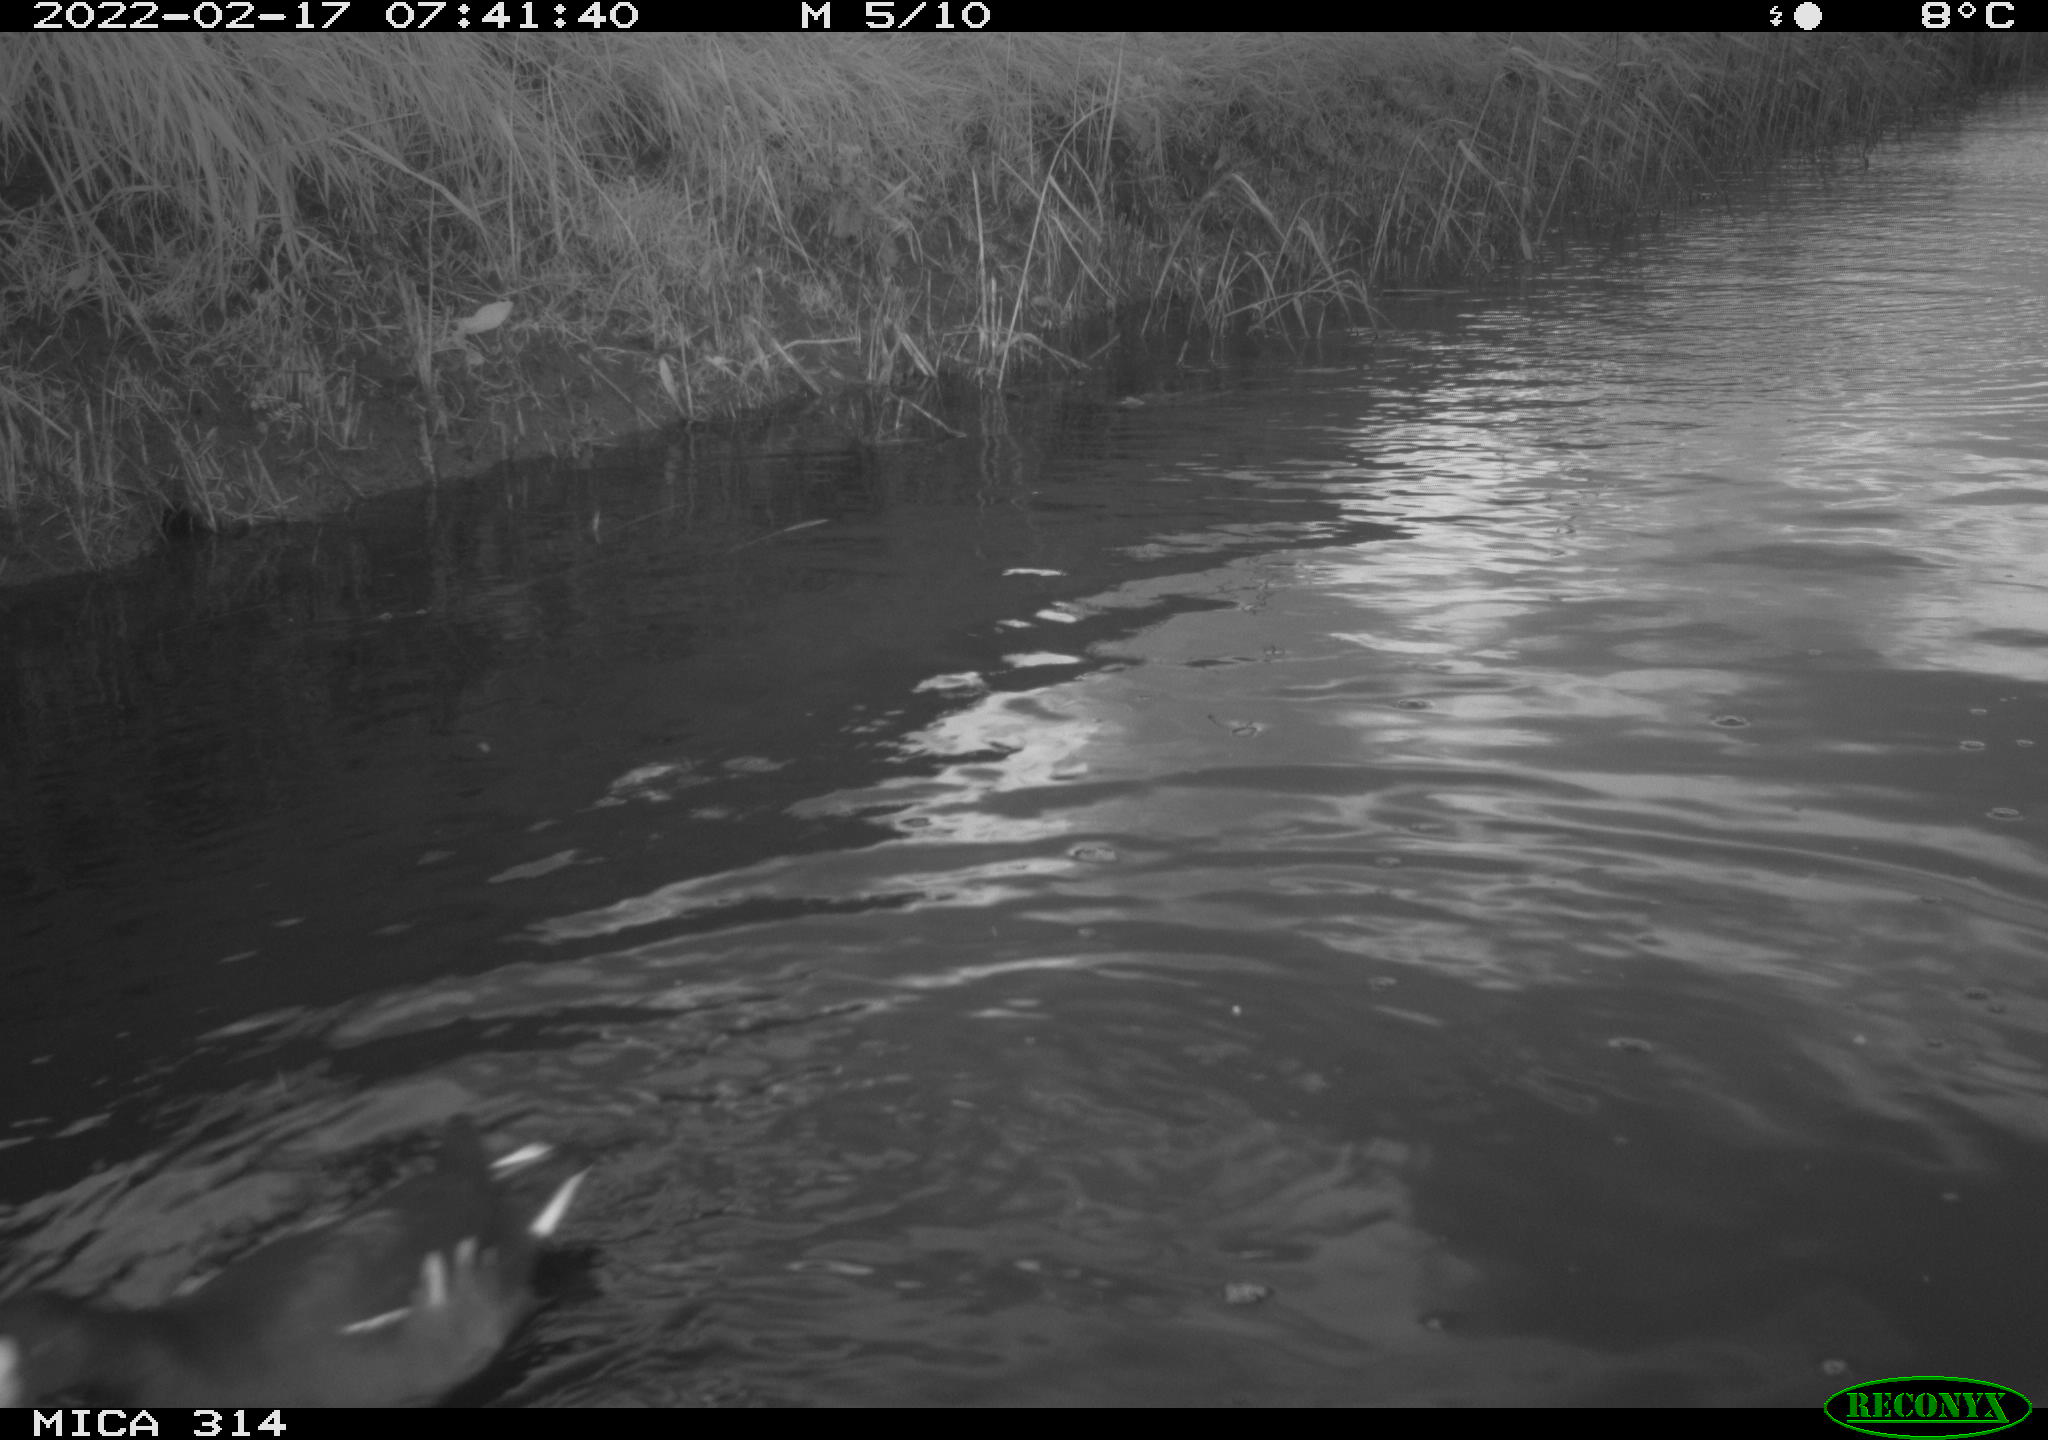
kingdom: Animalia
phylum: Chordata
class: Aves
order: Gruiformes
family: Rallidae
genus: Gallinula
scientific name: Gallinula chloropus
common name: Common moorhen
